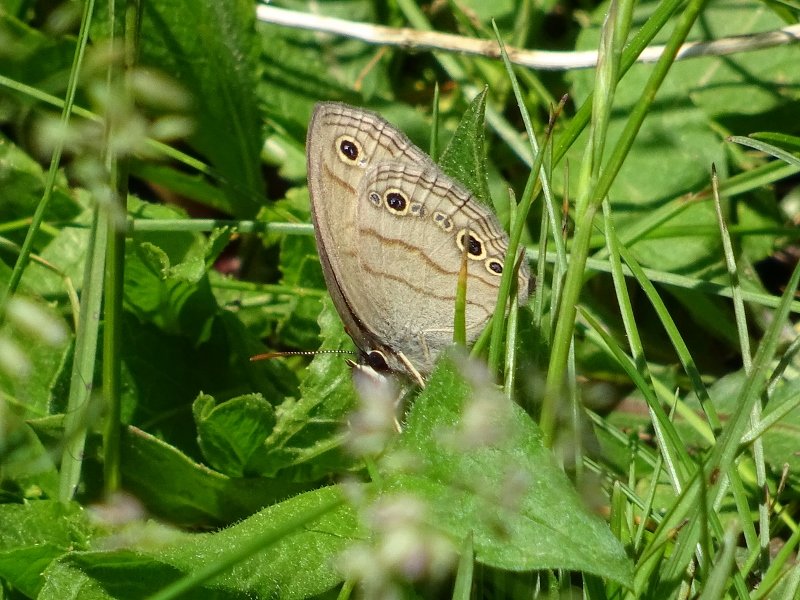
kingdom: Animalia
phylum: Arthropoda
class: Insecta
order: Lepidoptera
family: Nymphalidae
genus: Euptychia
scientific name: Euptychia cymela
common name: Little Wood Satyr
